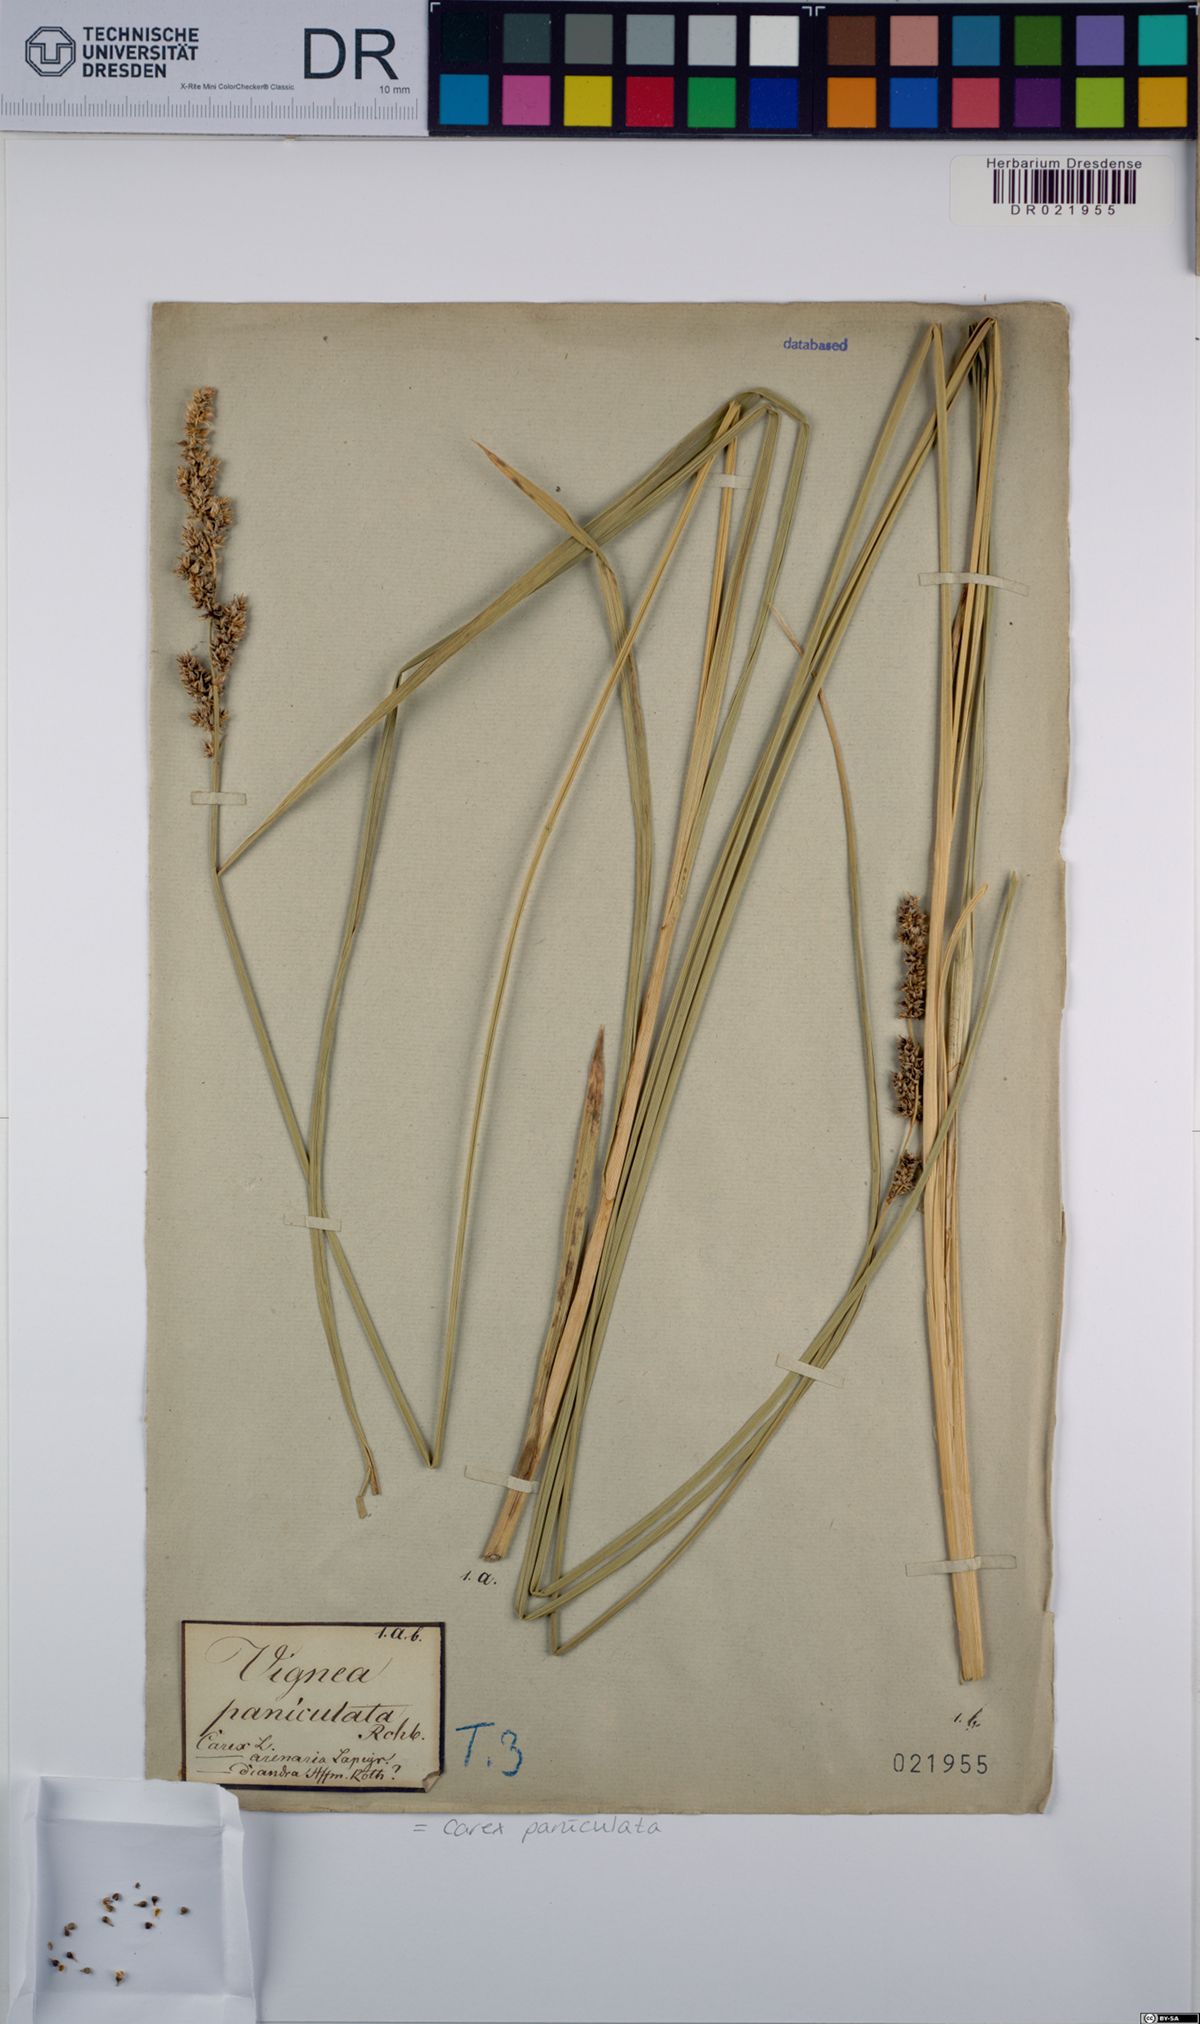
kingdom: Plantae
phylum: Tracheophyta
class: Liliopsida
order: Poales
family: Cyperaceae
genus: Carex
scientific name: Carex paniculata
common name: Greater tussock-sedge
